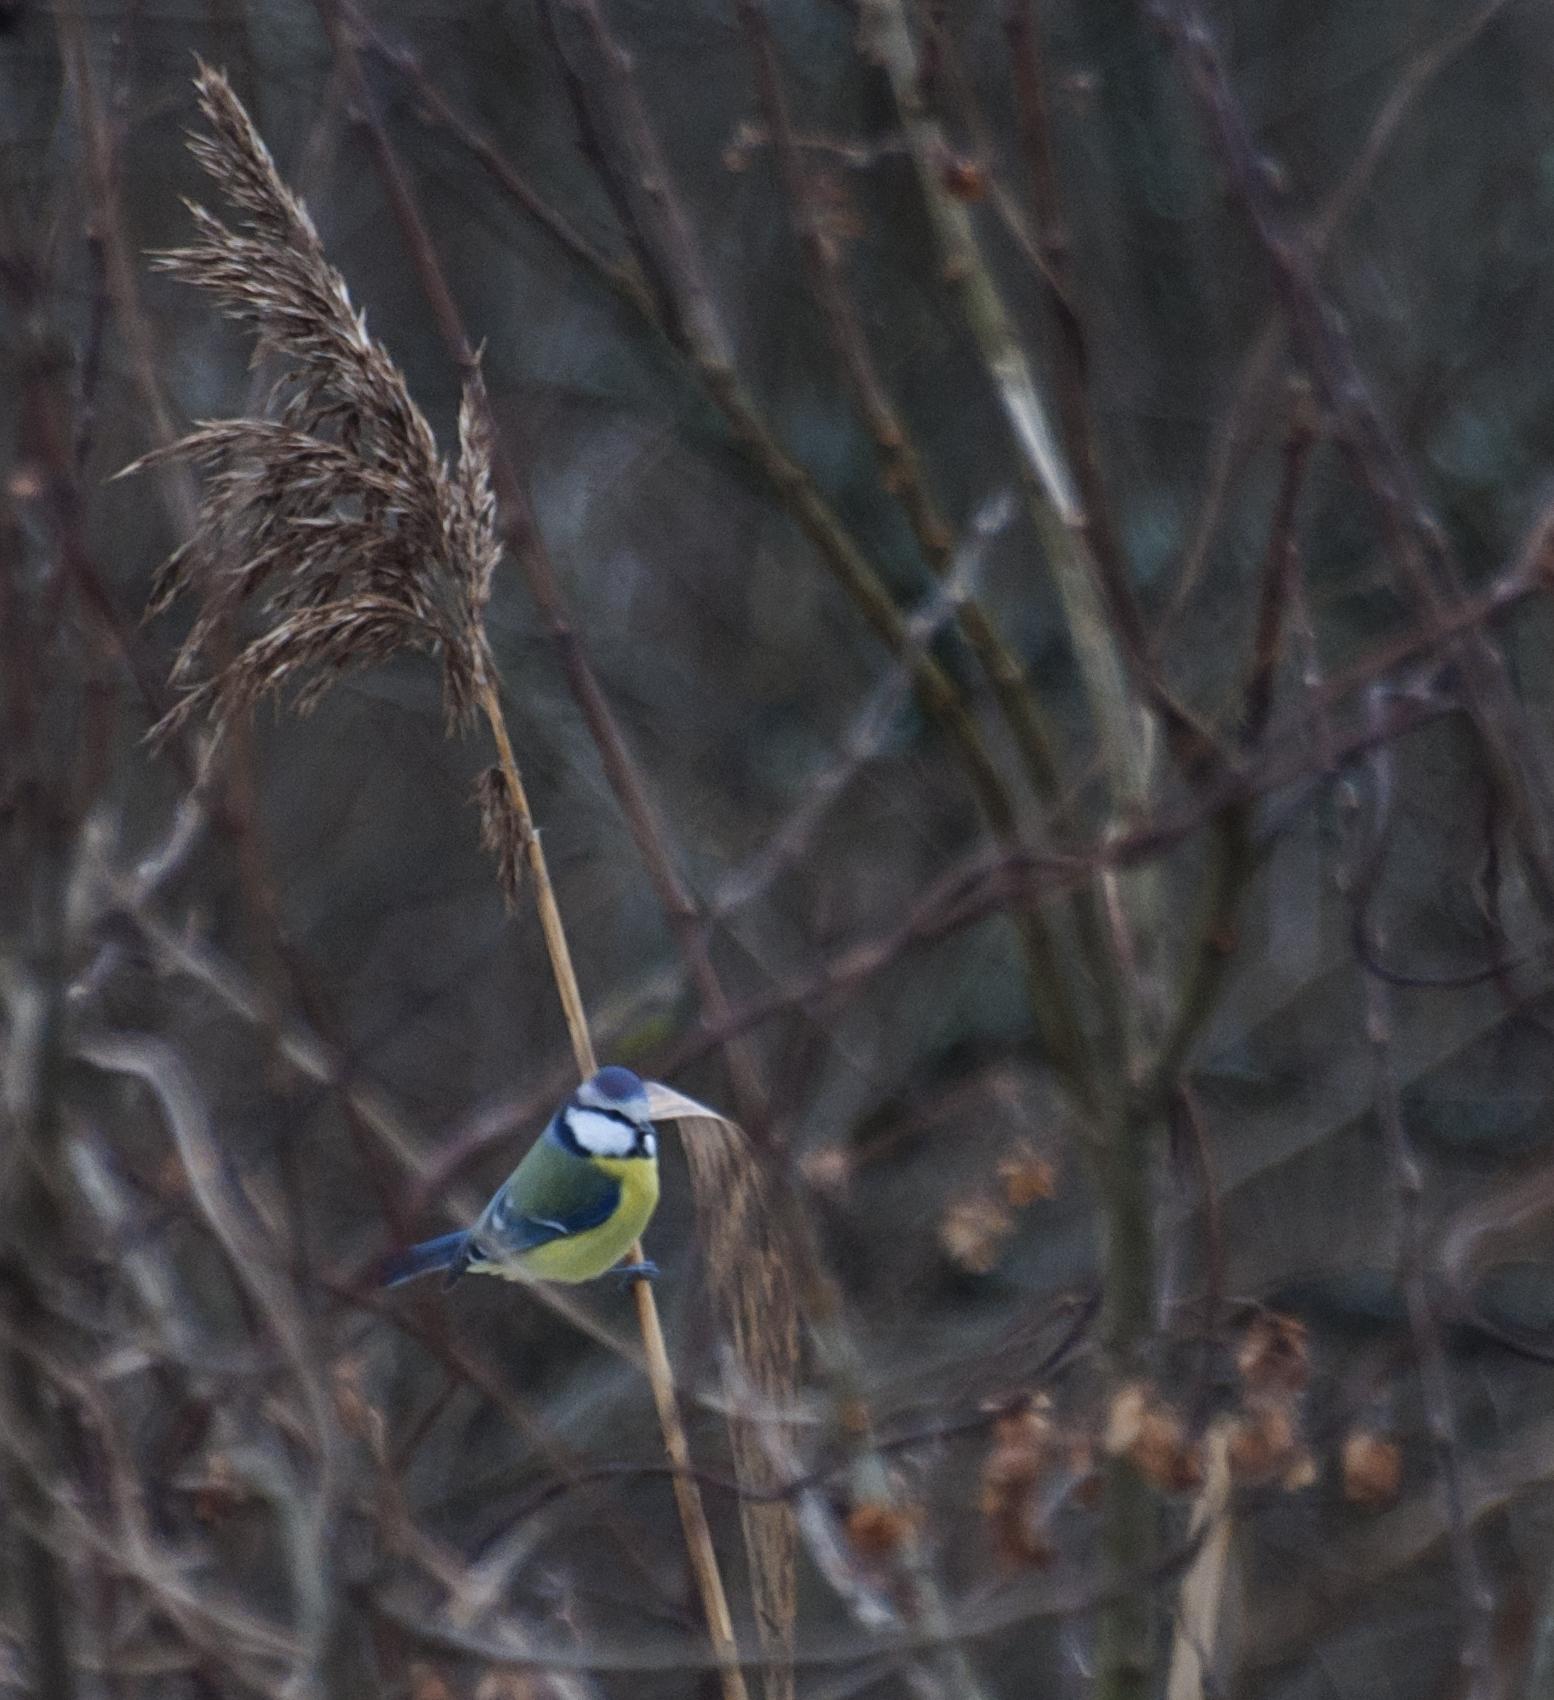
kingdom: Animalia
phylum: Chordata
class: Aves
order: Passeriformes
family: Paridae
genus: Cyanistes
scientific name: Cyanistes caeruleus
